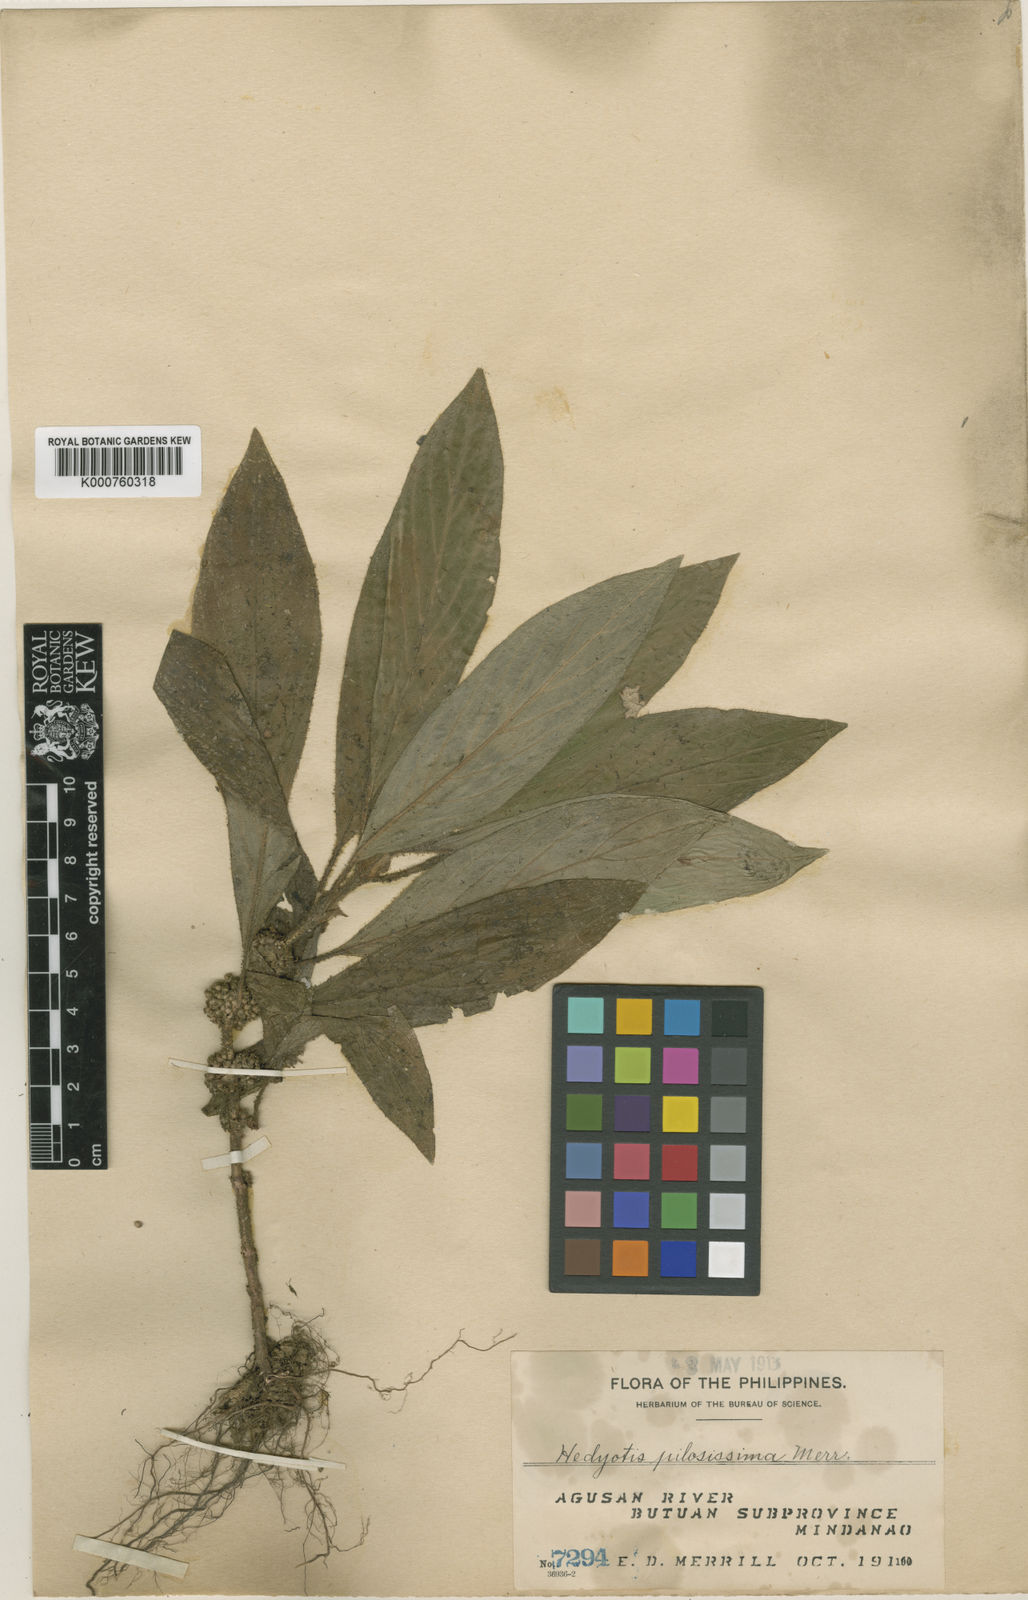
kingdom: Plantae
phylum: Tracheophyta
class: Magnoliopsida
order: Gentianales
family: Rubiaceae
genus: Hedyotis
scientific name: Hedyotis pilosissima
